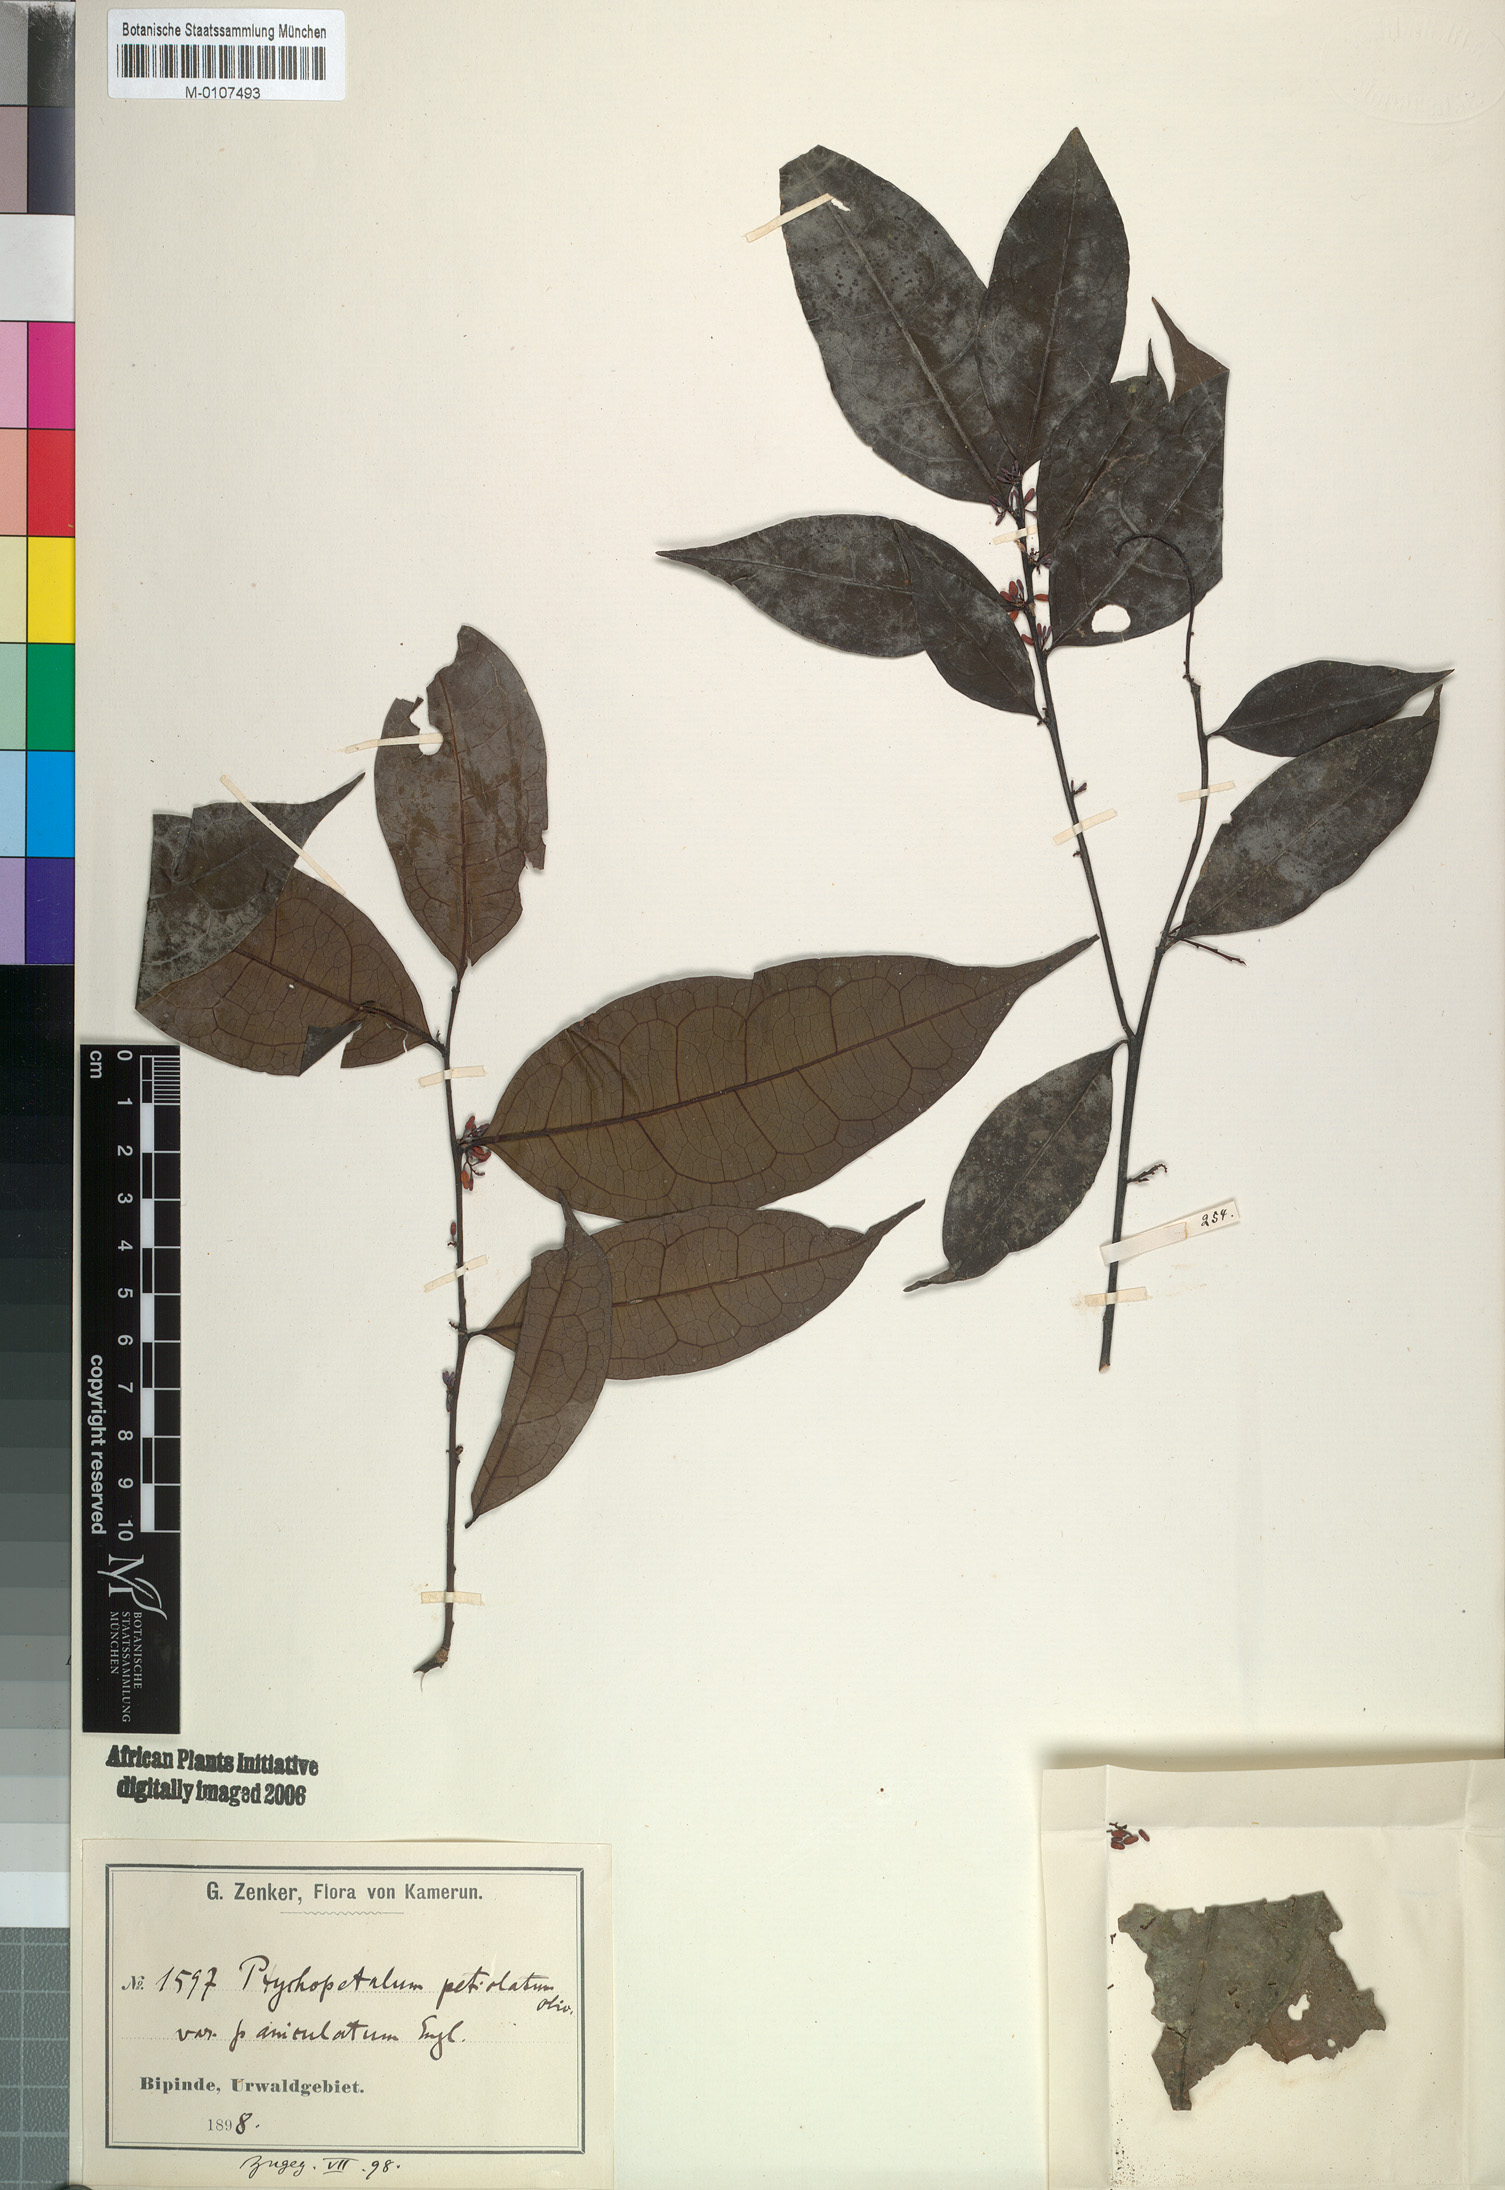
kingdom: Plantae
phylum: Tracheophyta
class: Magnoliopsida
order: Santalales
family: Olacaceae
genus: Ptychopetalum
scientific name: Ptychopetalum petiolatum
